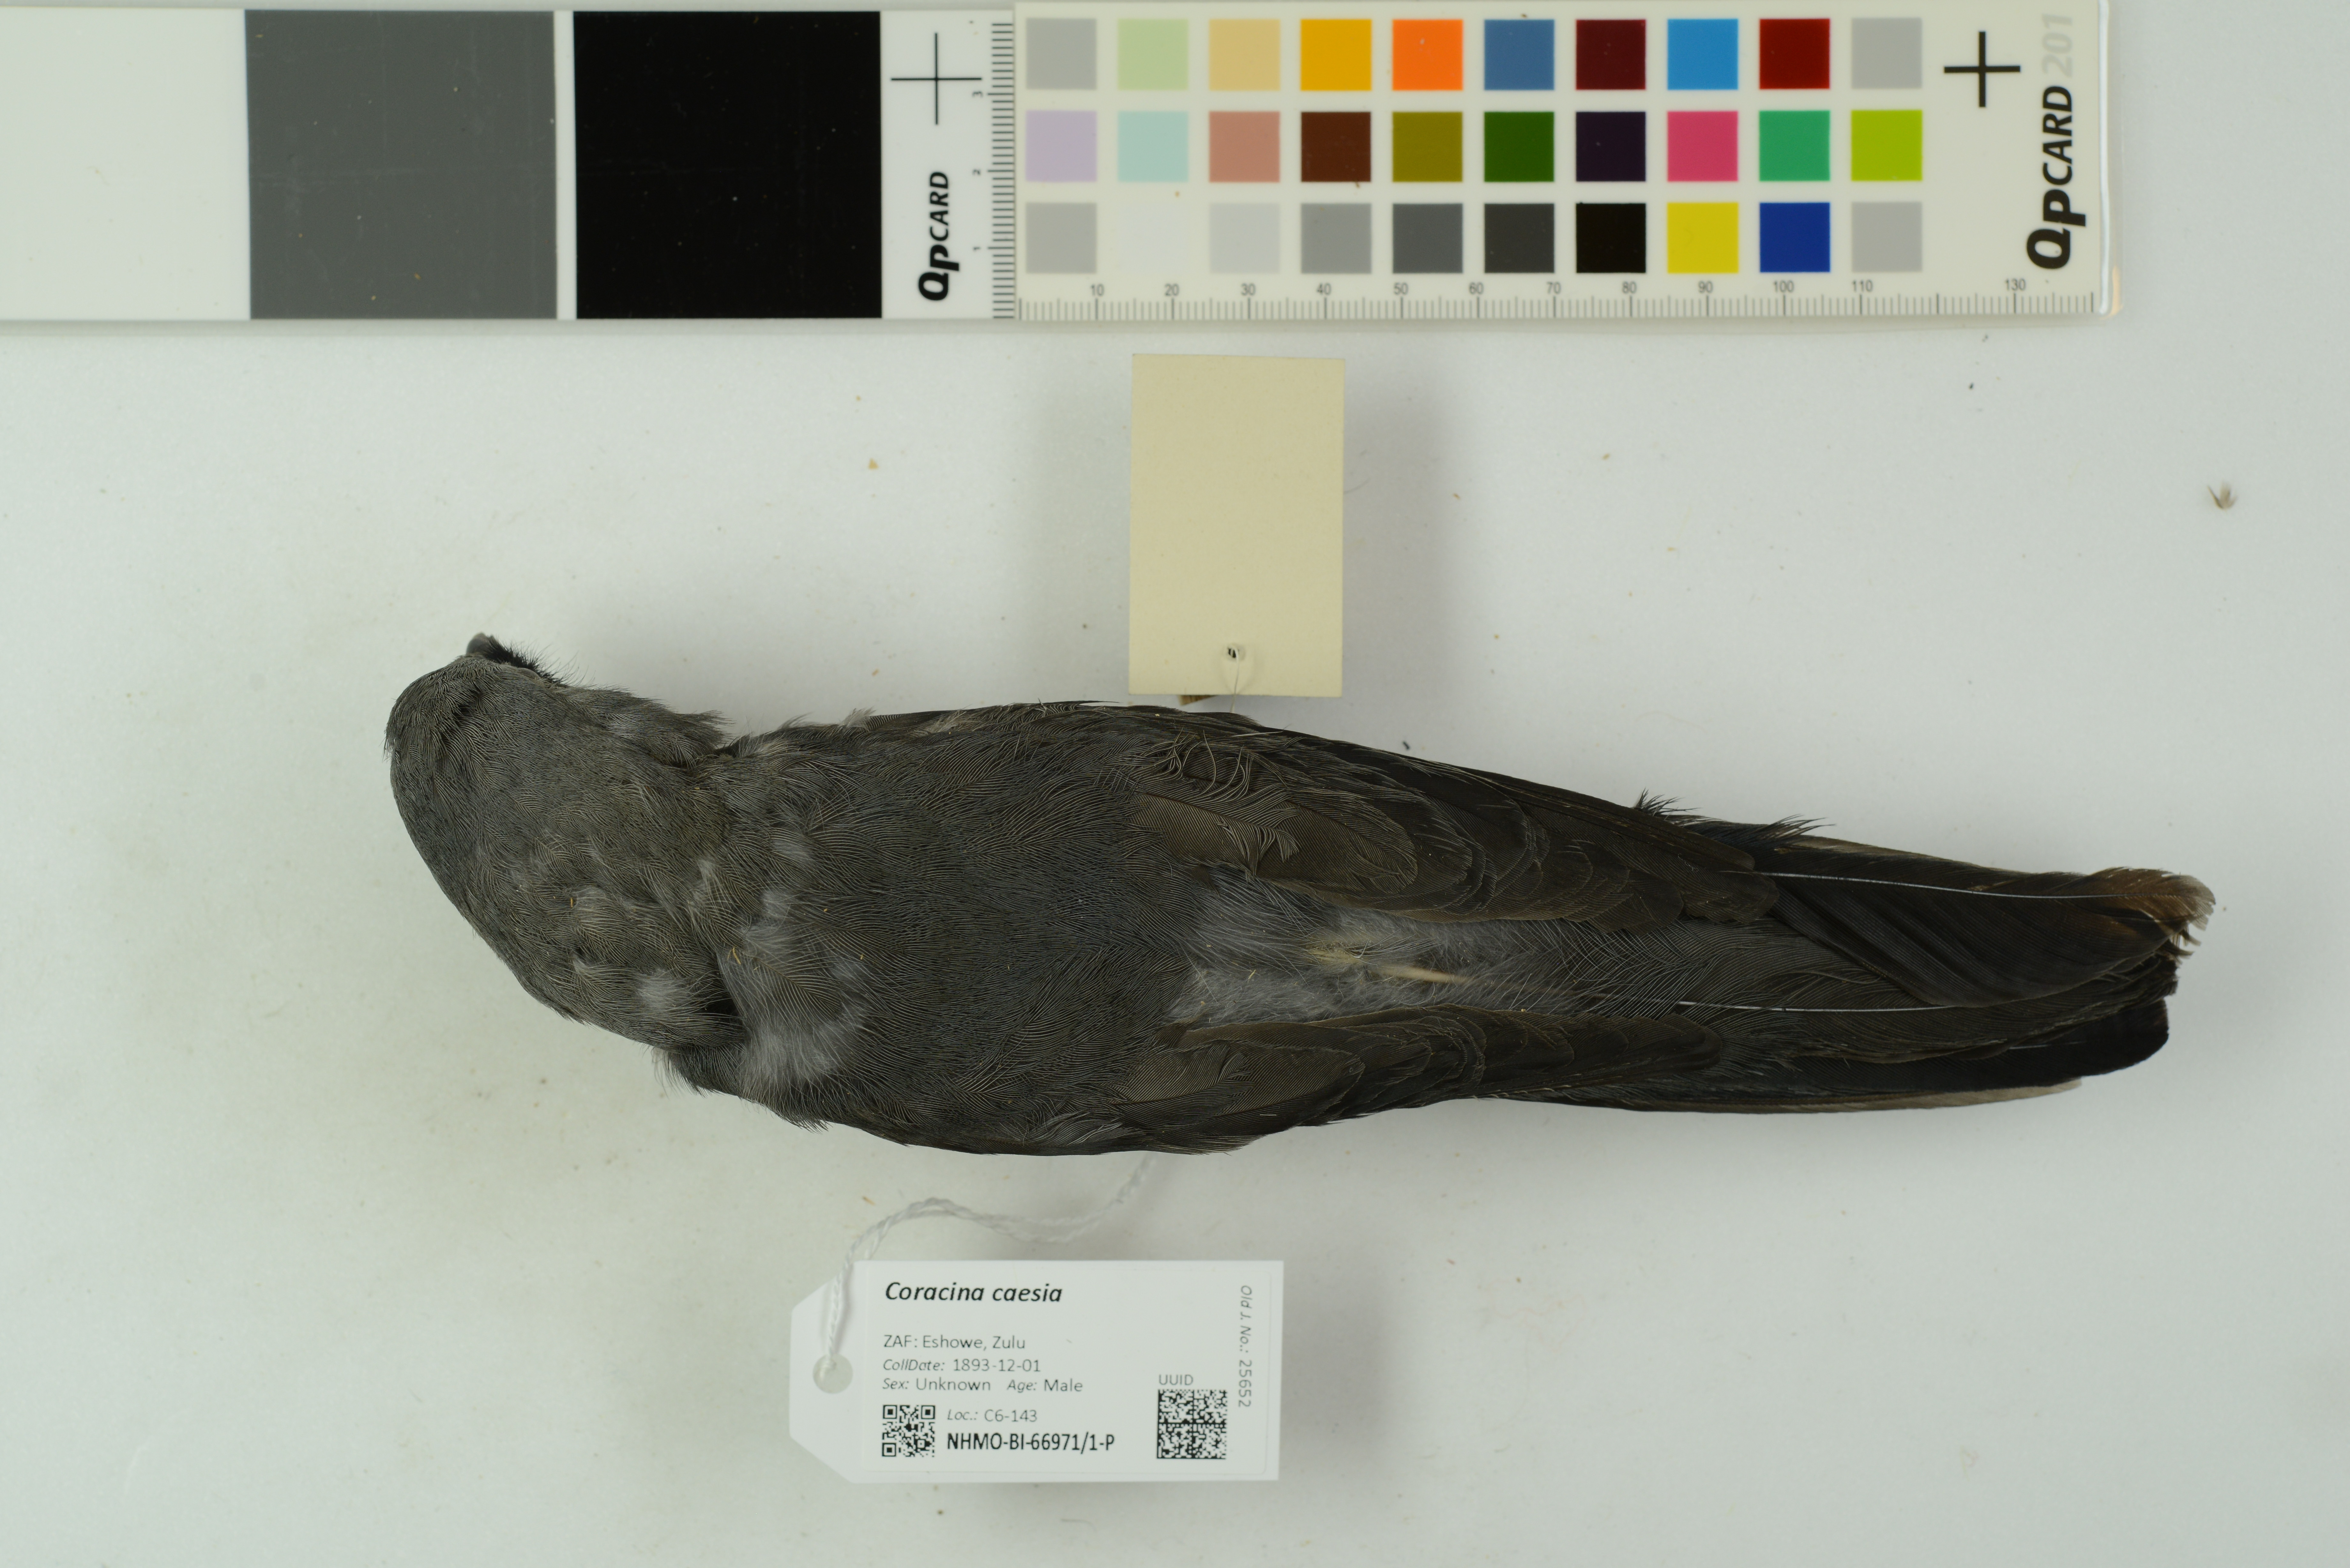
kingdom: Animalia
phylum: Chordata
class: Aves
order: Passeriformes
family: Campephagidae
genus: Coracina
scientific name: Coracina caesia
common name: Grey cuckooshrike
